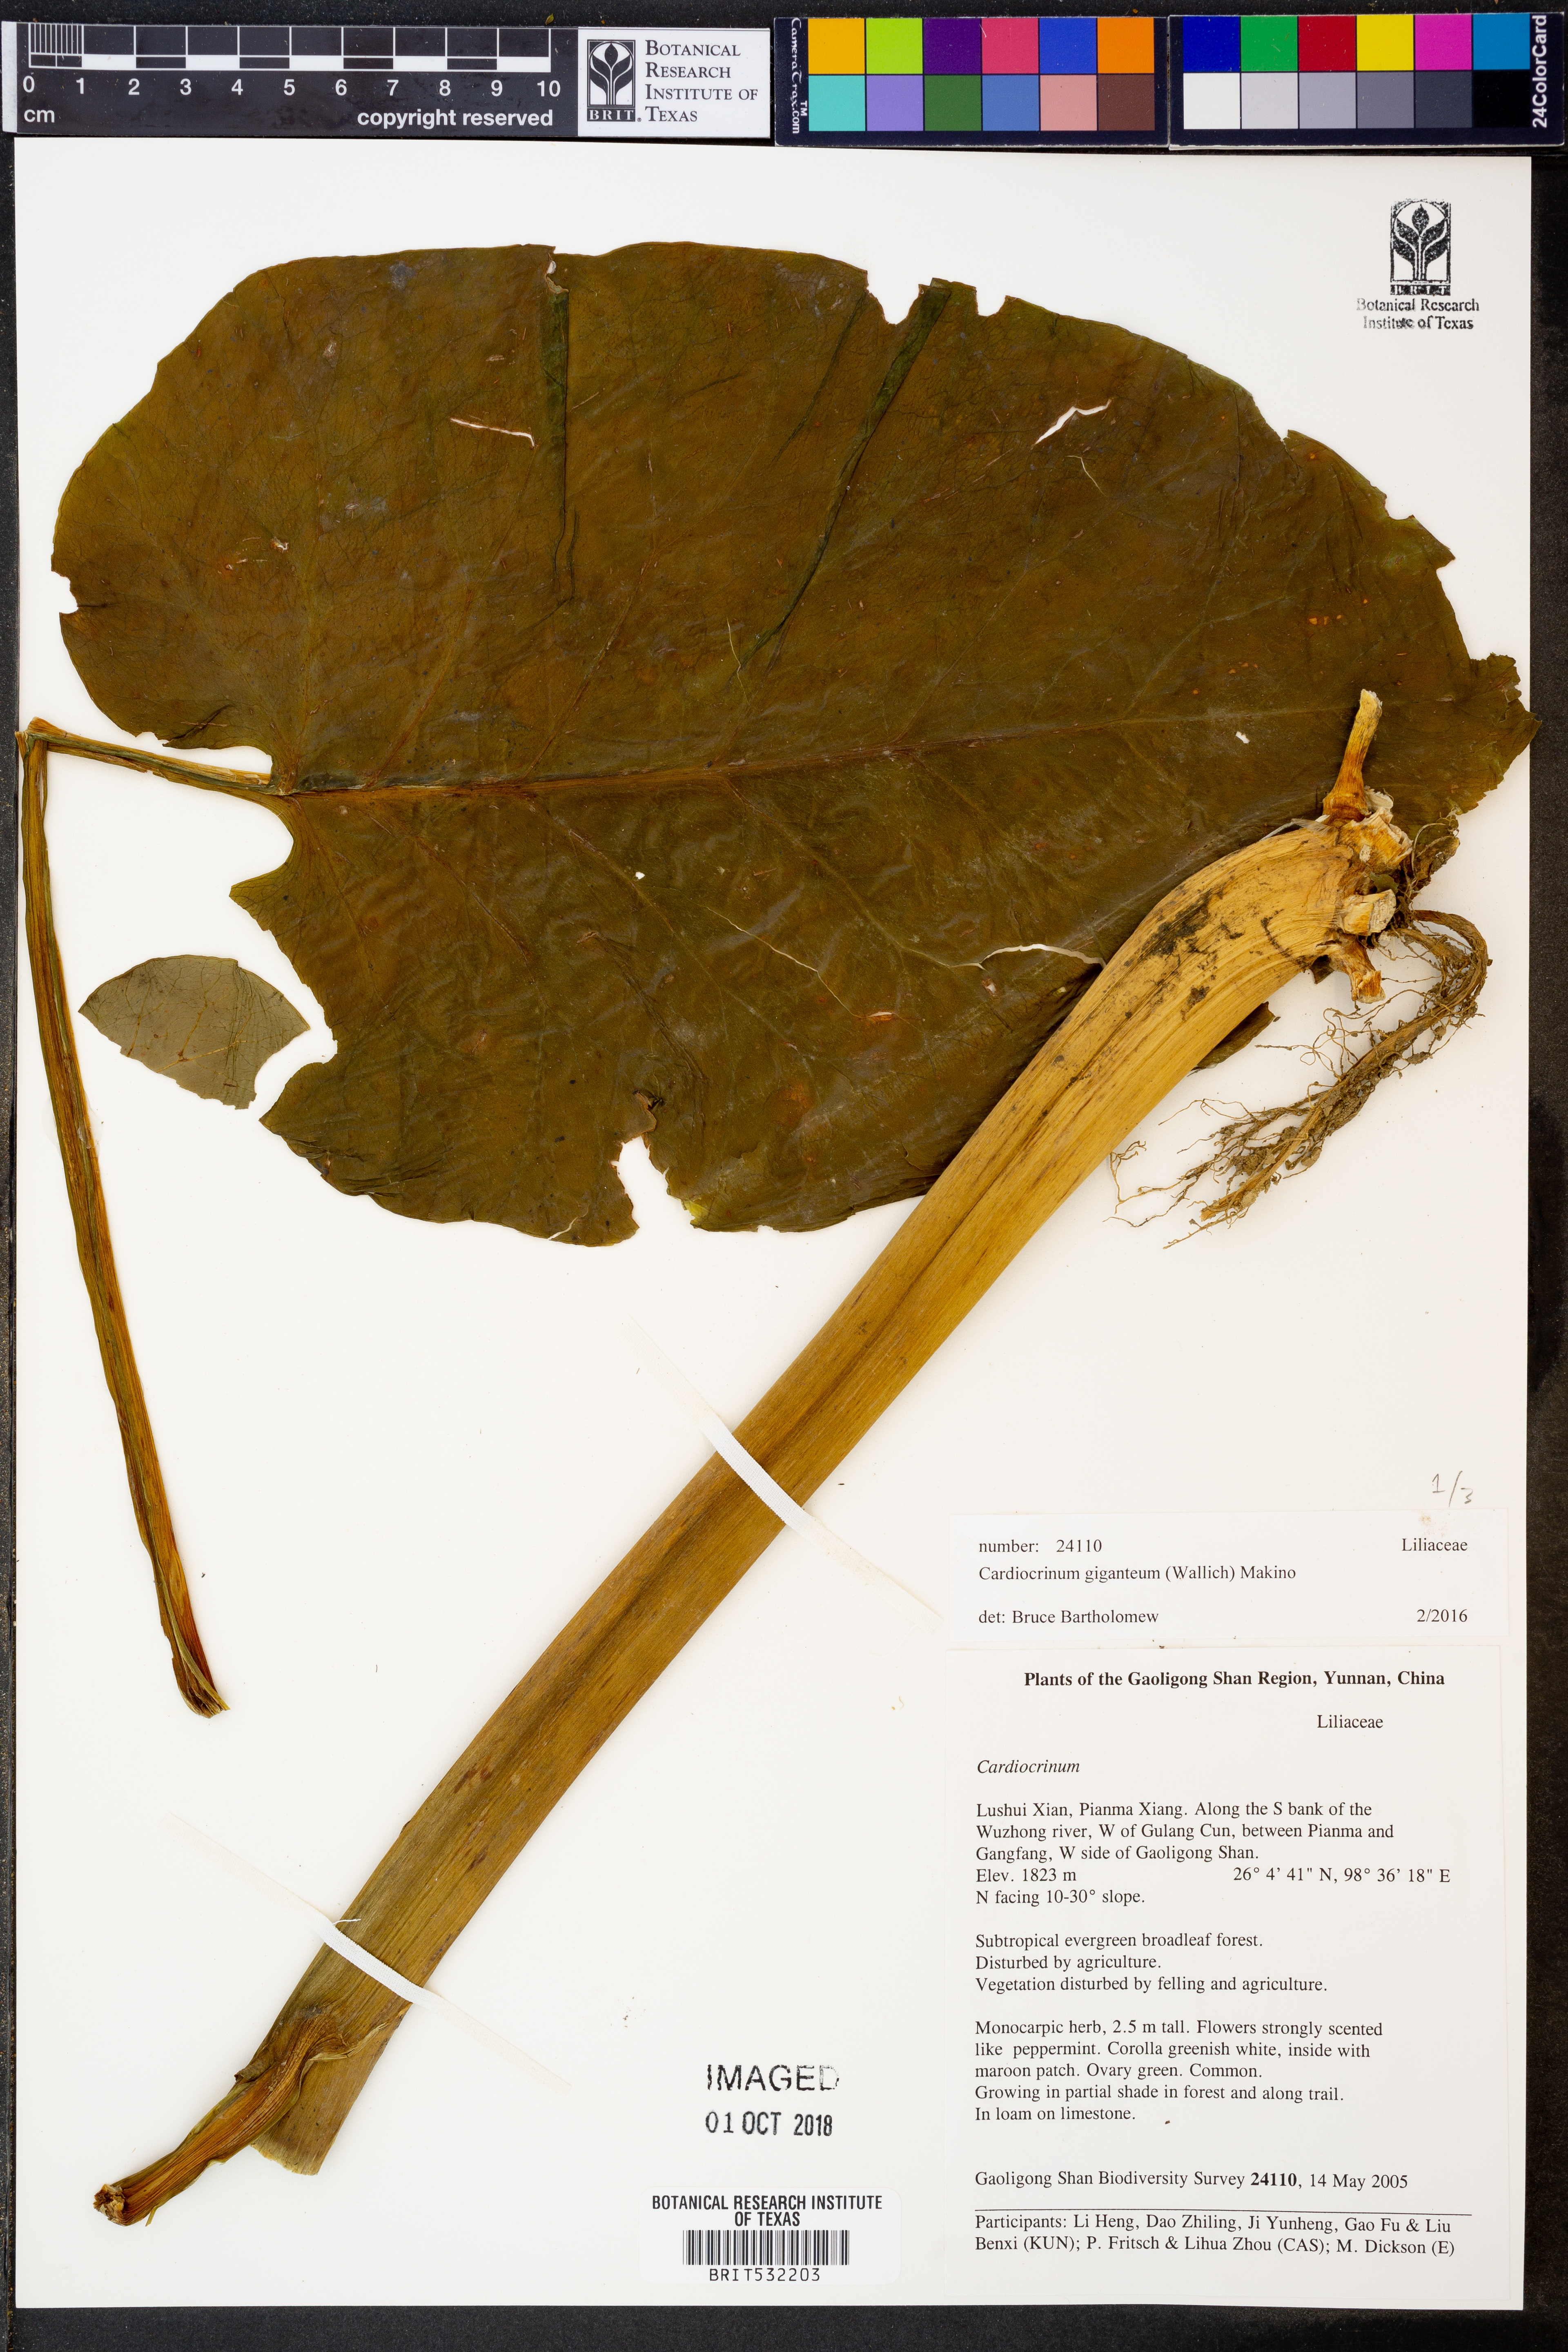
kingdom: Plantae
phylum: Tracheophyta
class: Liliopsida
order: Liliales
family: Liliaceae
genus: Cardiocrinum
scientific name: Cardiocrinum giganteum
